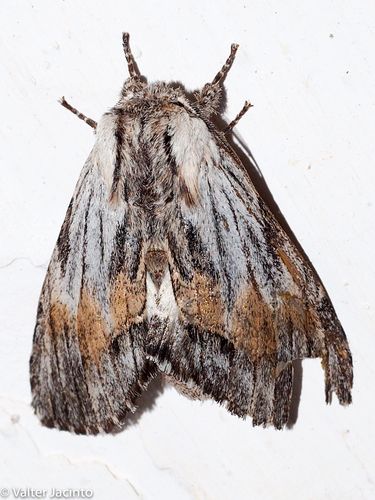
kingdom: Animalia
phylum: Arthropoda
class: Insecta
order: Lepidoptera
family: Notodontidae
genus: Harpyia
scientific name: Harpyia milhauseri
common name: Tawny prominent
